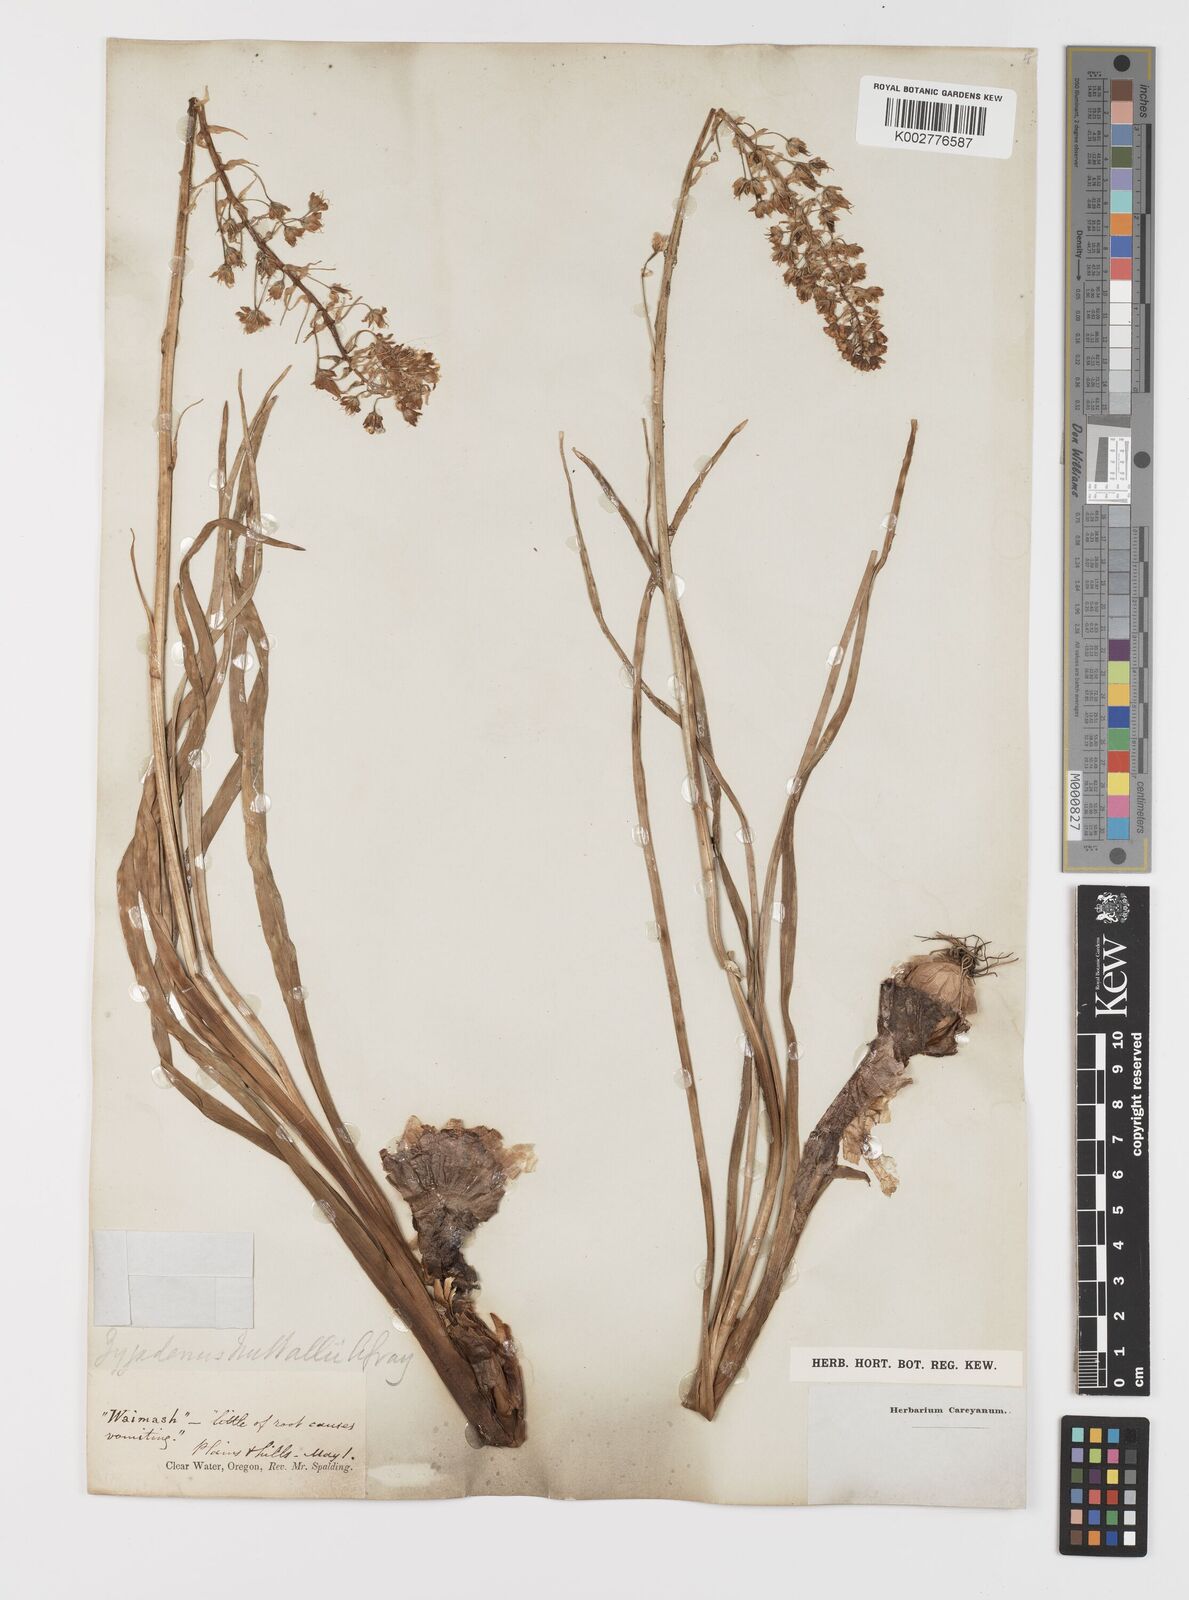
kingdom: Plantae
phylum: Tracheophyta
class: Liliopsida
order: Liliales
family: Melanthiaceae
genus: Toxicoscordion
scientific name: Toxicoscordion nuttallii
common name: Poison sego
